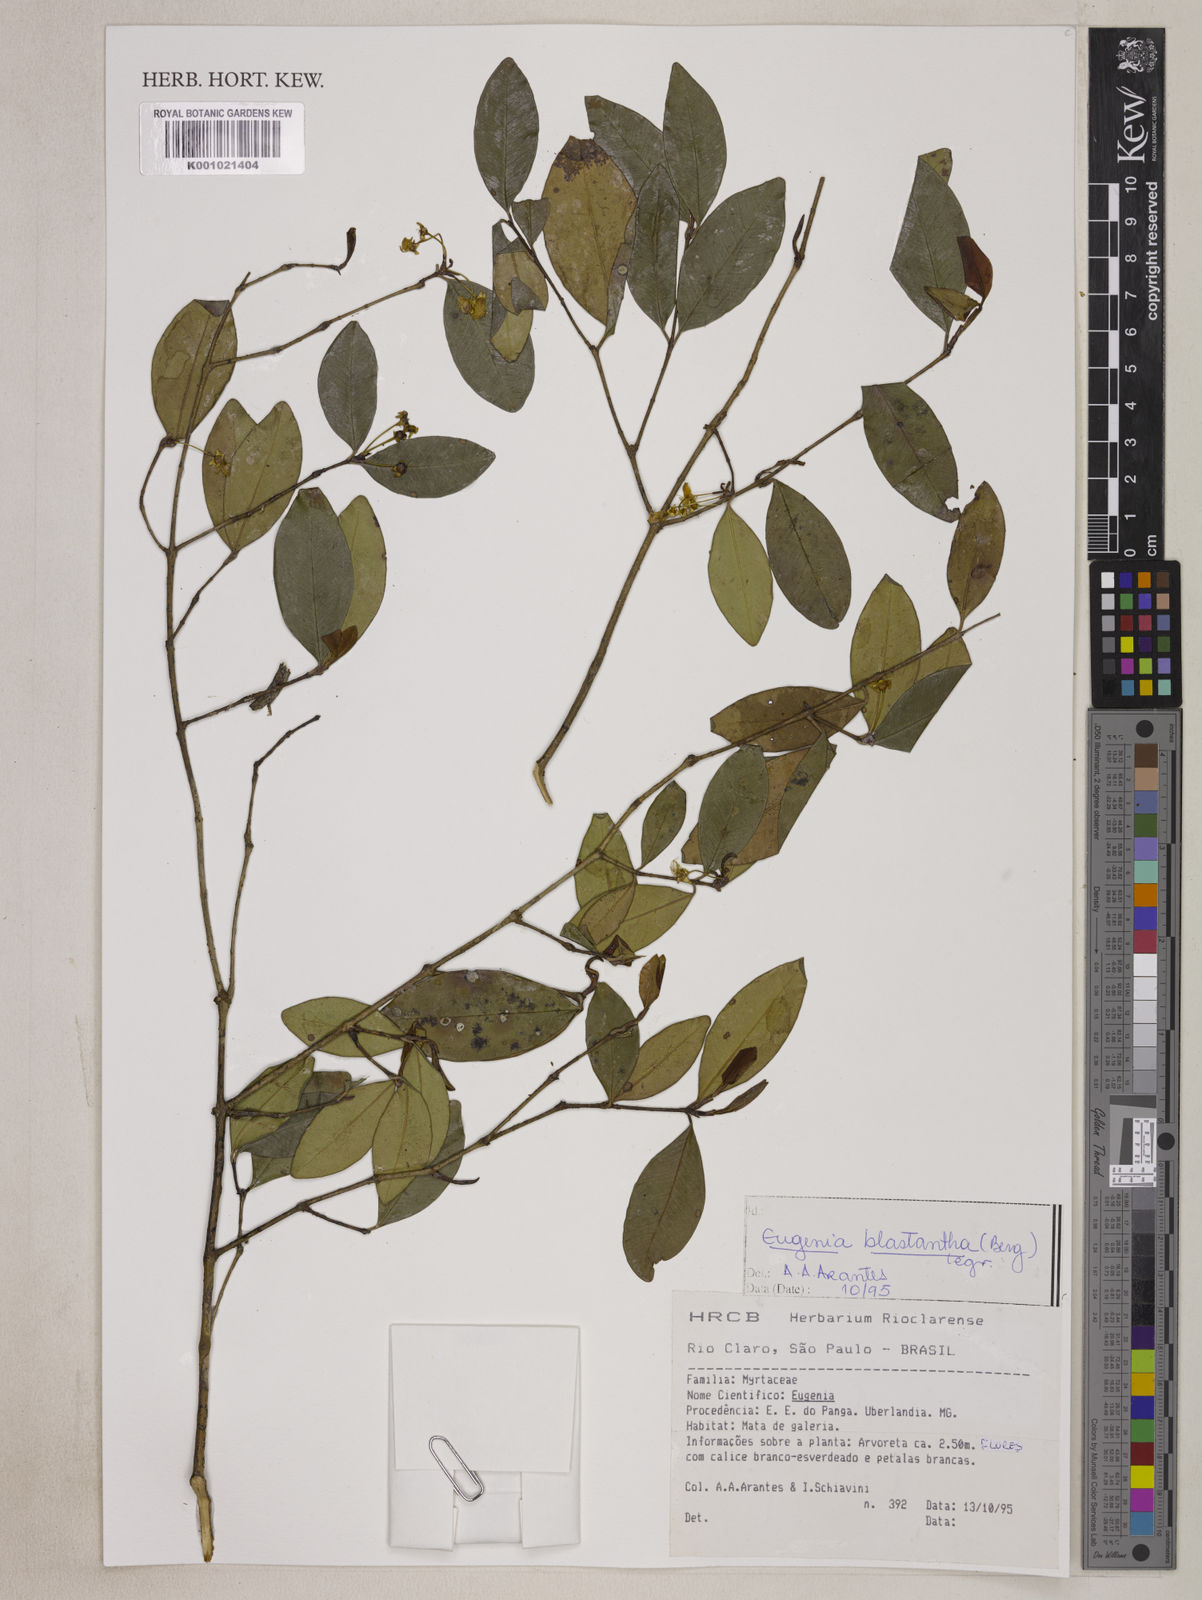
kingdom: Plantae
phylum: Tracheophyta
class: Magnoliopsida
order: Myrtales
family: Myrtaceae
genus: Eugenia
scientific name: Eugenia blastantha
